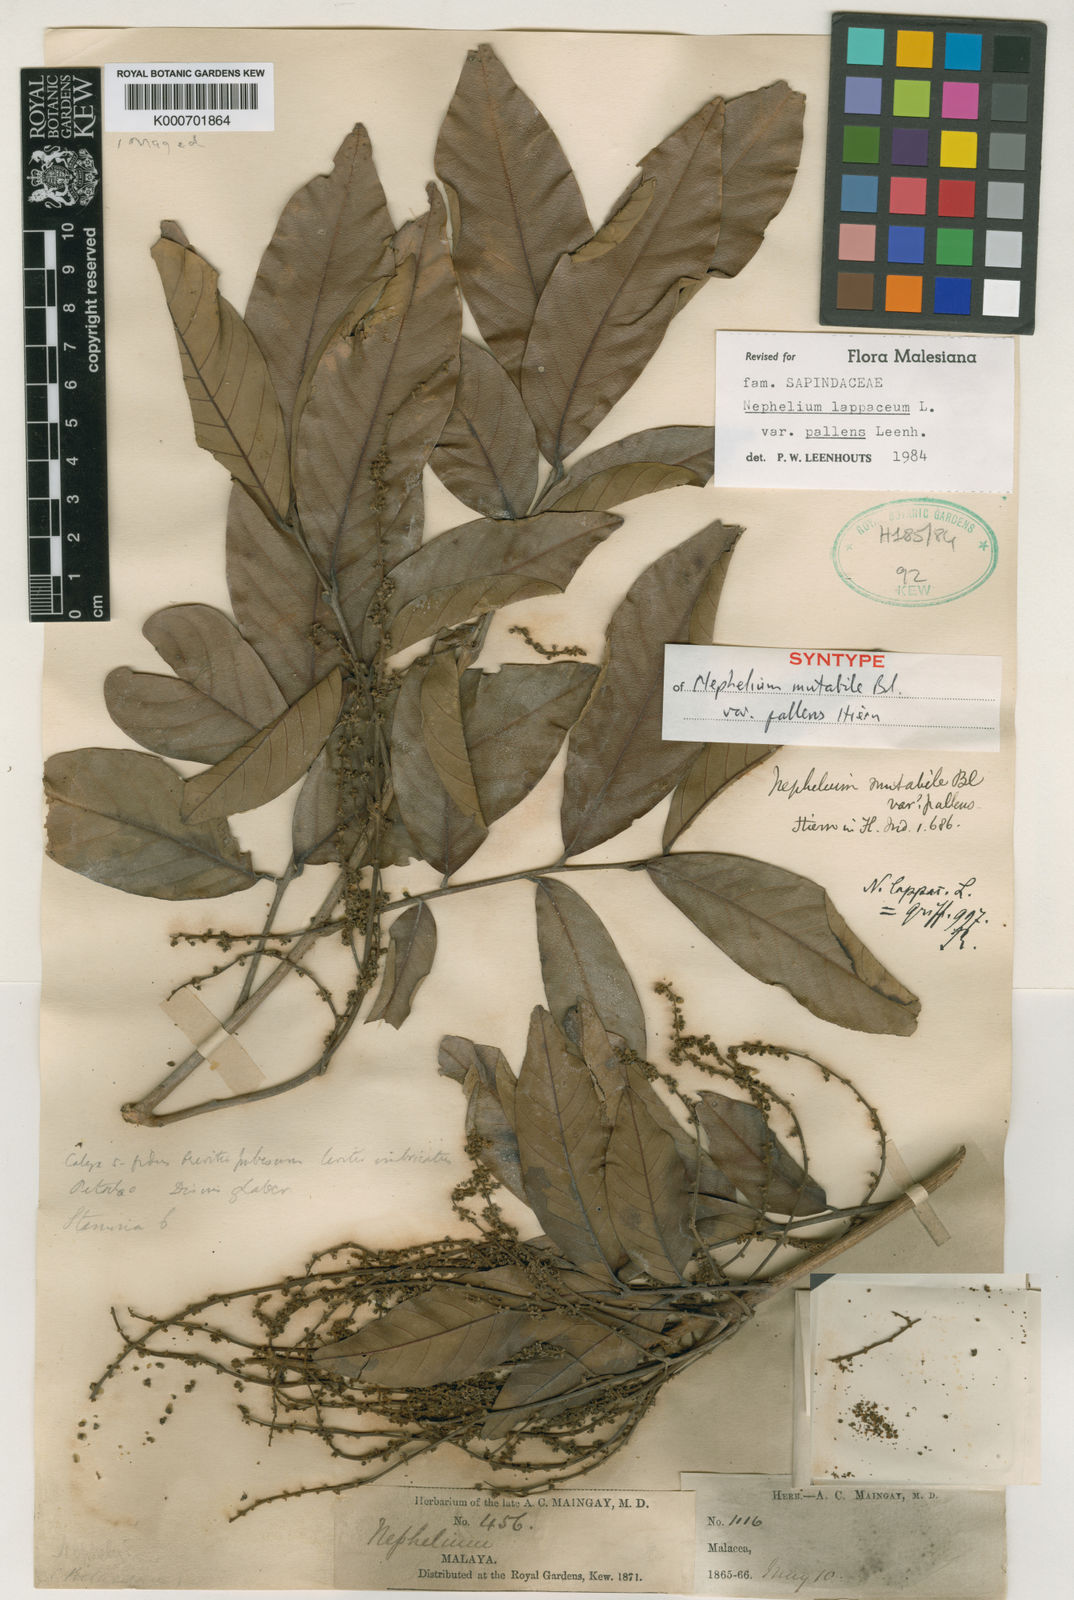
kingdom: Plantae
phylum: Tracheophyta
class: Magnoliopsida
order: Sapindales
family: Sapindaceae
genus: Nephelium
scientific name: Nephelium lappaceum
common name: Rambutan
